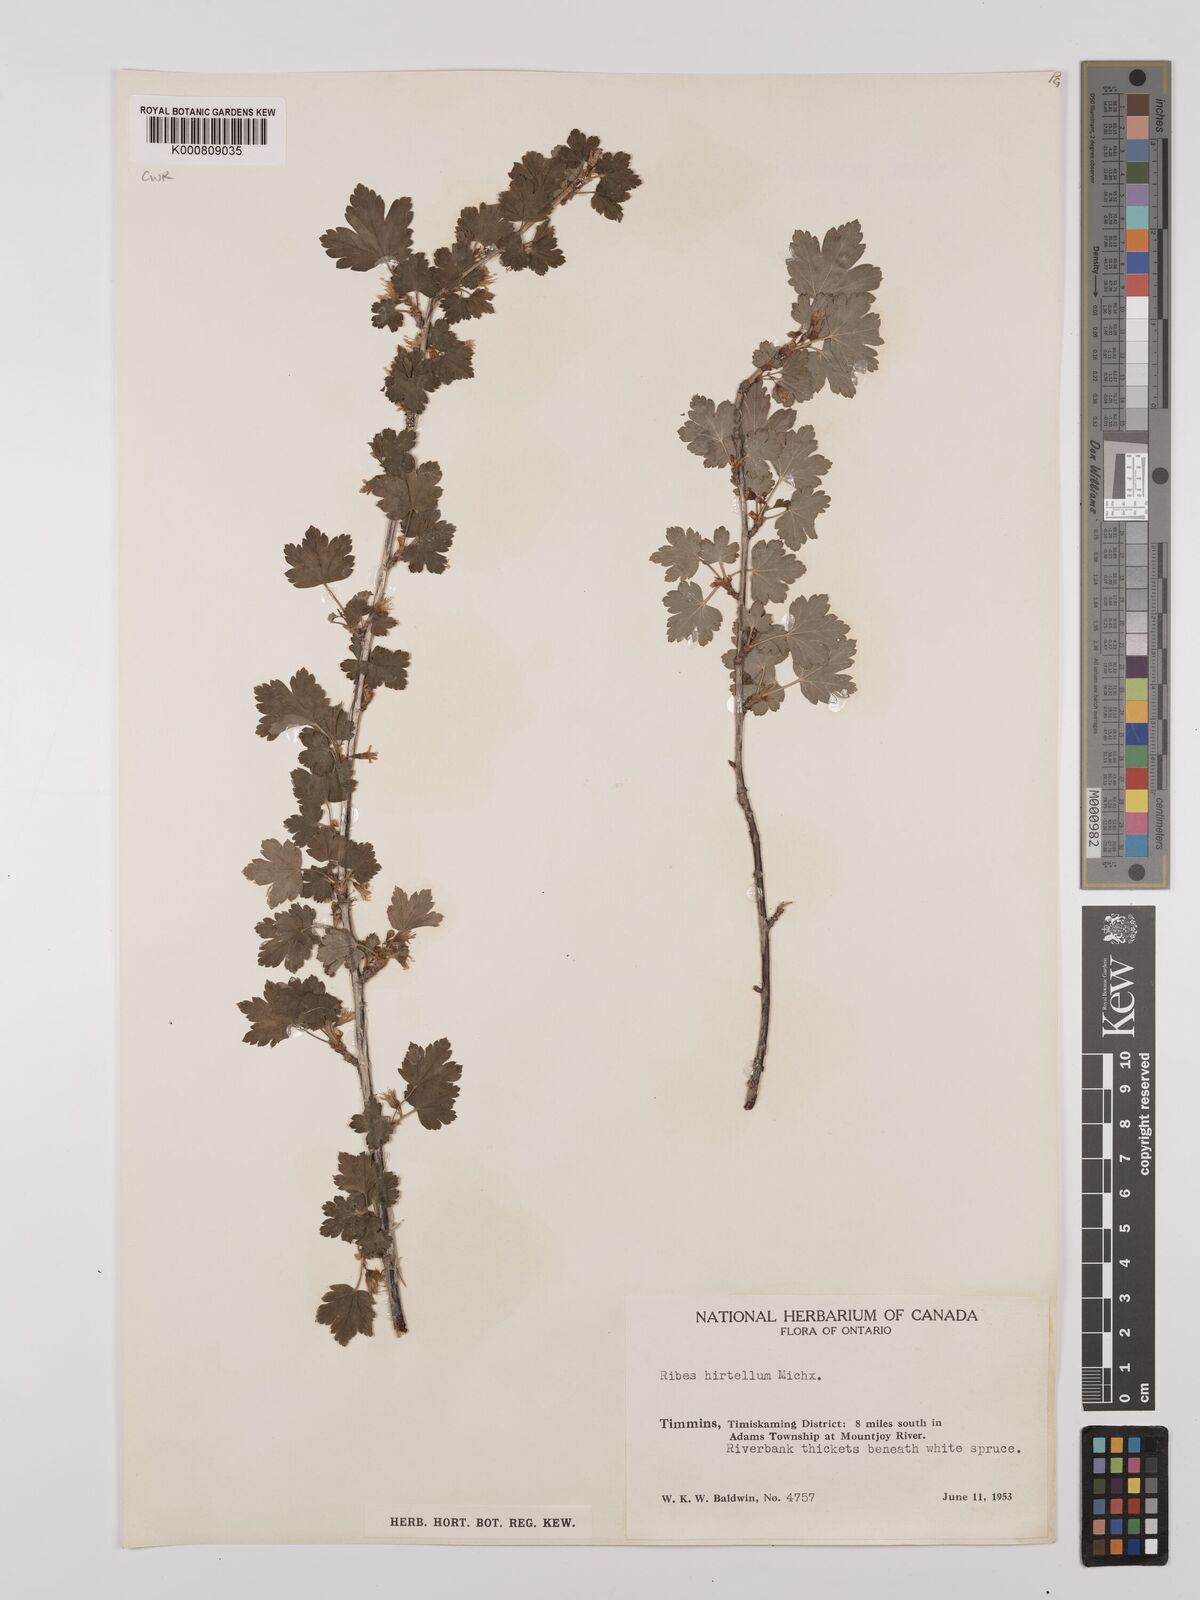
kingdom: Plantae
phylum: Tracheophyta
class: Magnoliopsida
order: Saxifragales
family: Grossulariaceae
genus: Ribes
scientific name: Ribes hirtellum
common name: Hairy gooseberry
